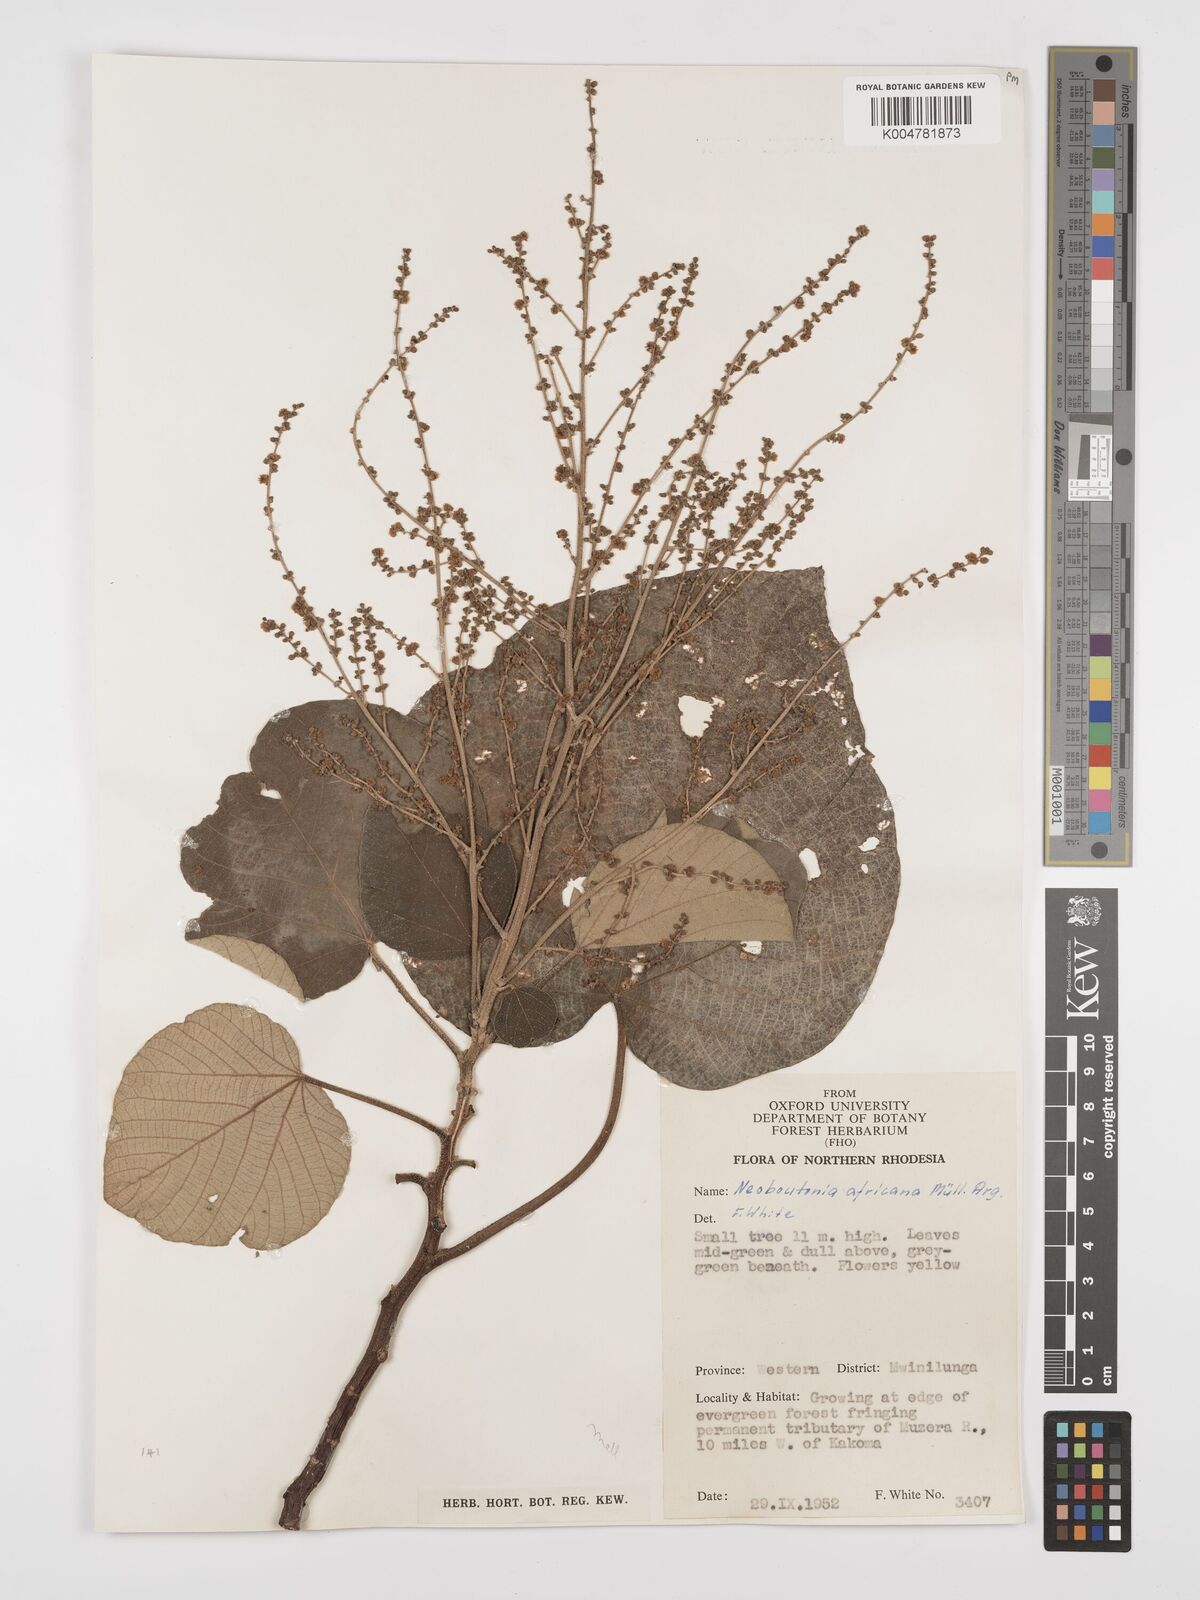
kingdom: Plantae
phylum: Tracheophyta
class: Magnoliopsida
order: Malpighiales
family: Euphorbiaceae
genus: Neoboutonia
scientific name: Neoboutonia melleri
